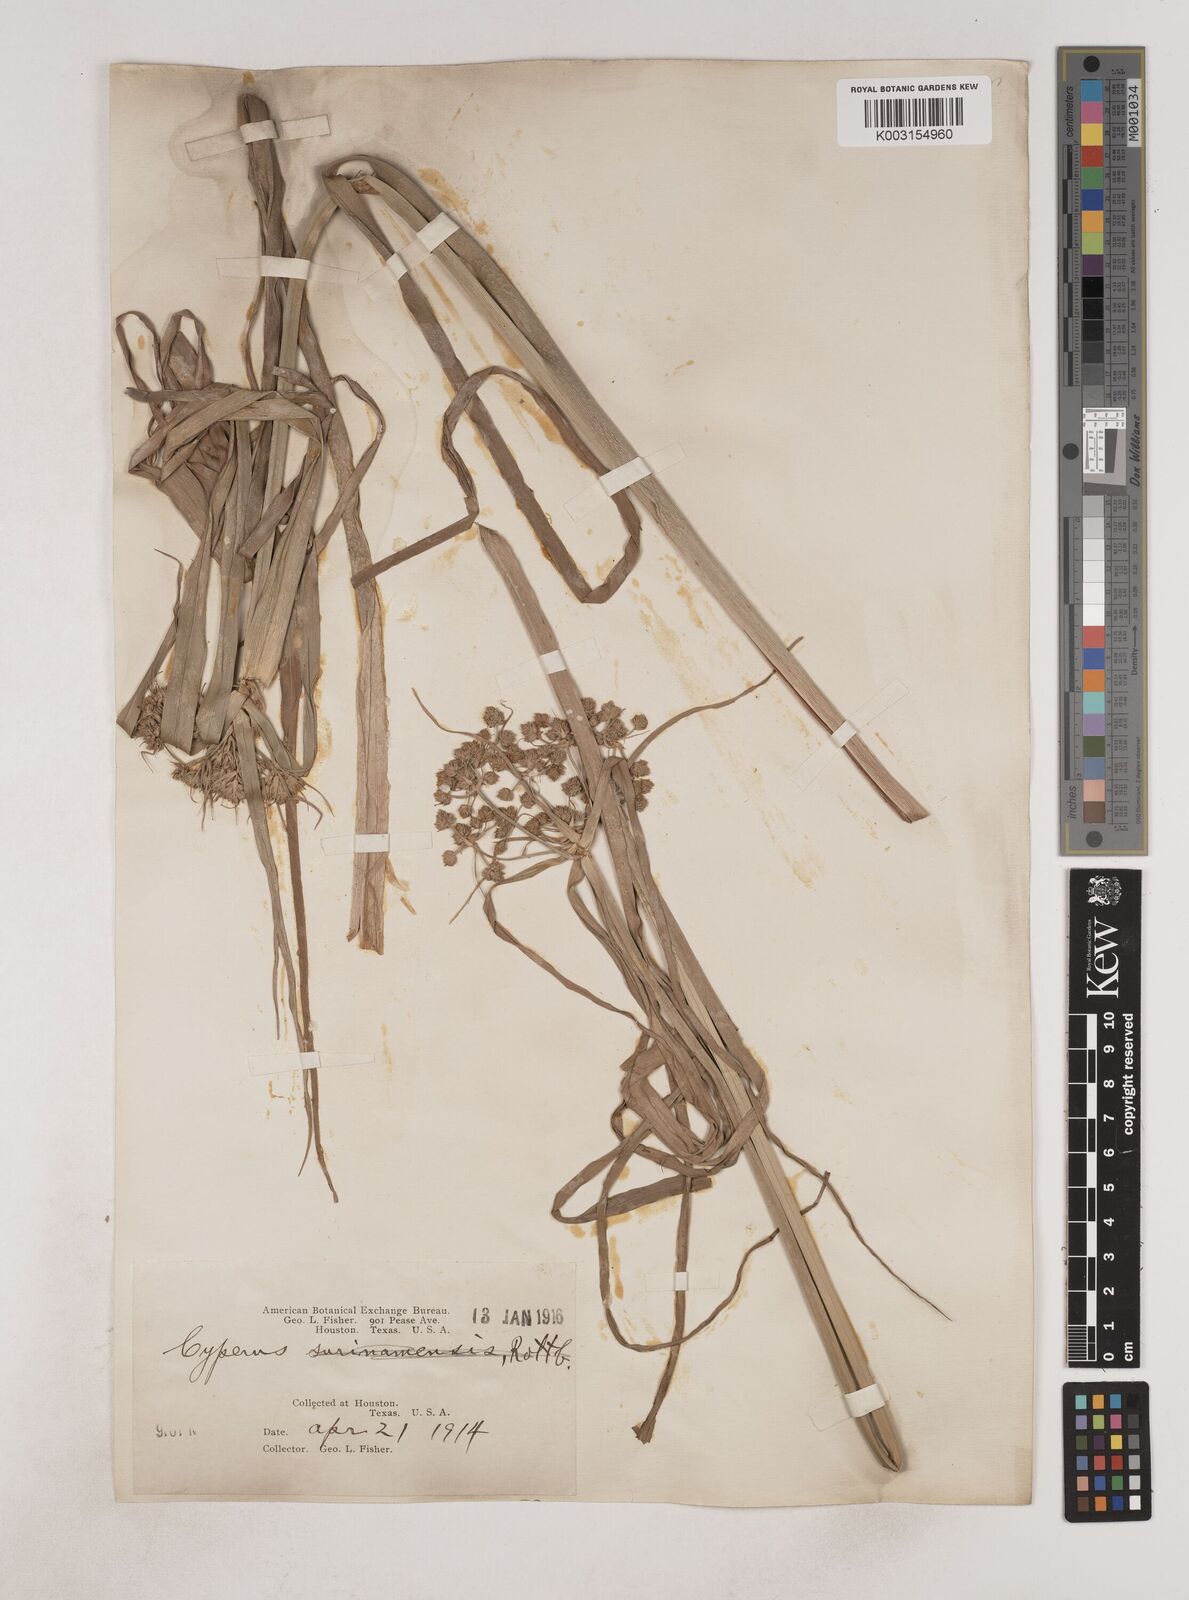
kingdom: Plantae
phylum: Tracheophyta
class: Liliopsida
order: Poales
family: Cyperaceae
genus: Cyperus
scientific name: Cyperus virens
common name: Green flatsedge
